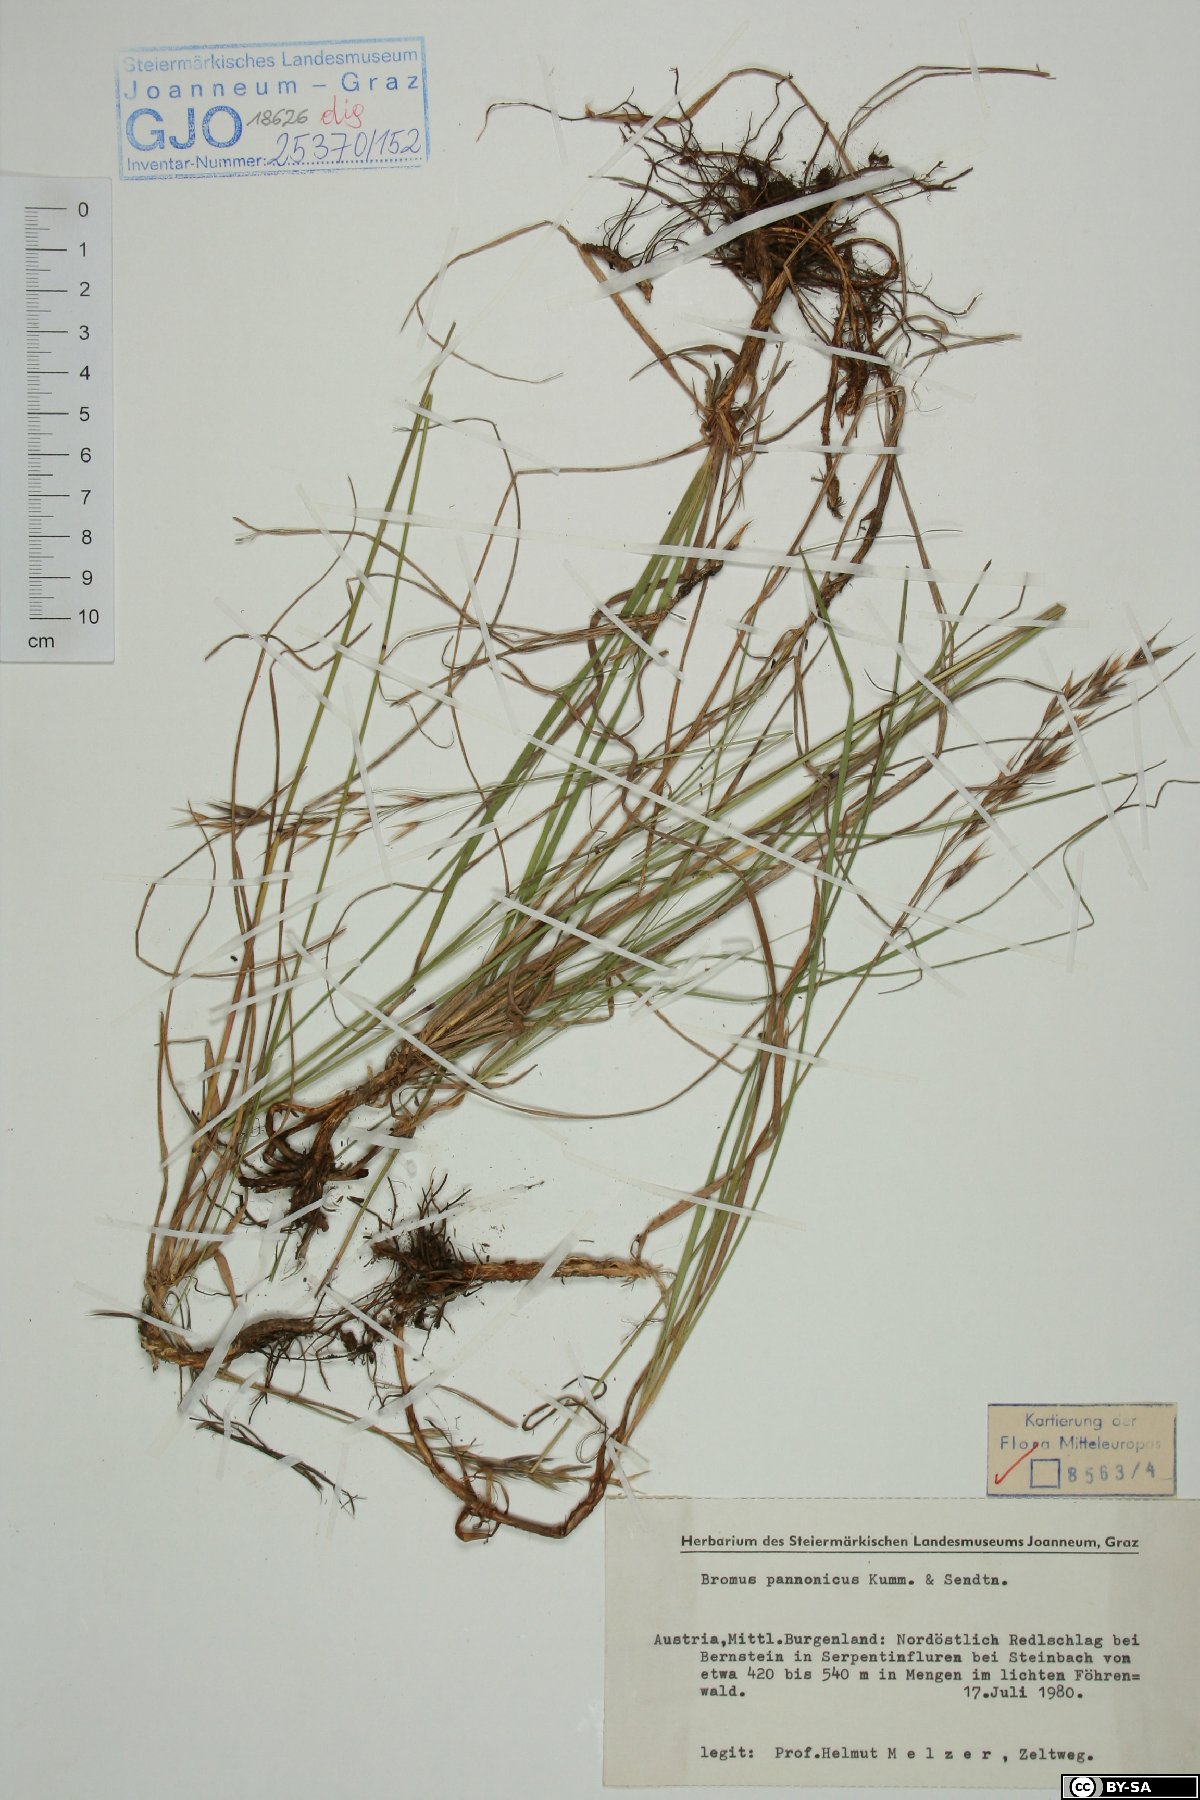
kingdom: Plantae
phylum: Tracheophyta
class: Liliopsida
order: Poales
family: Poaceae
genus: Bromus
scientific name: Bromus pannonicus
